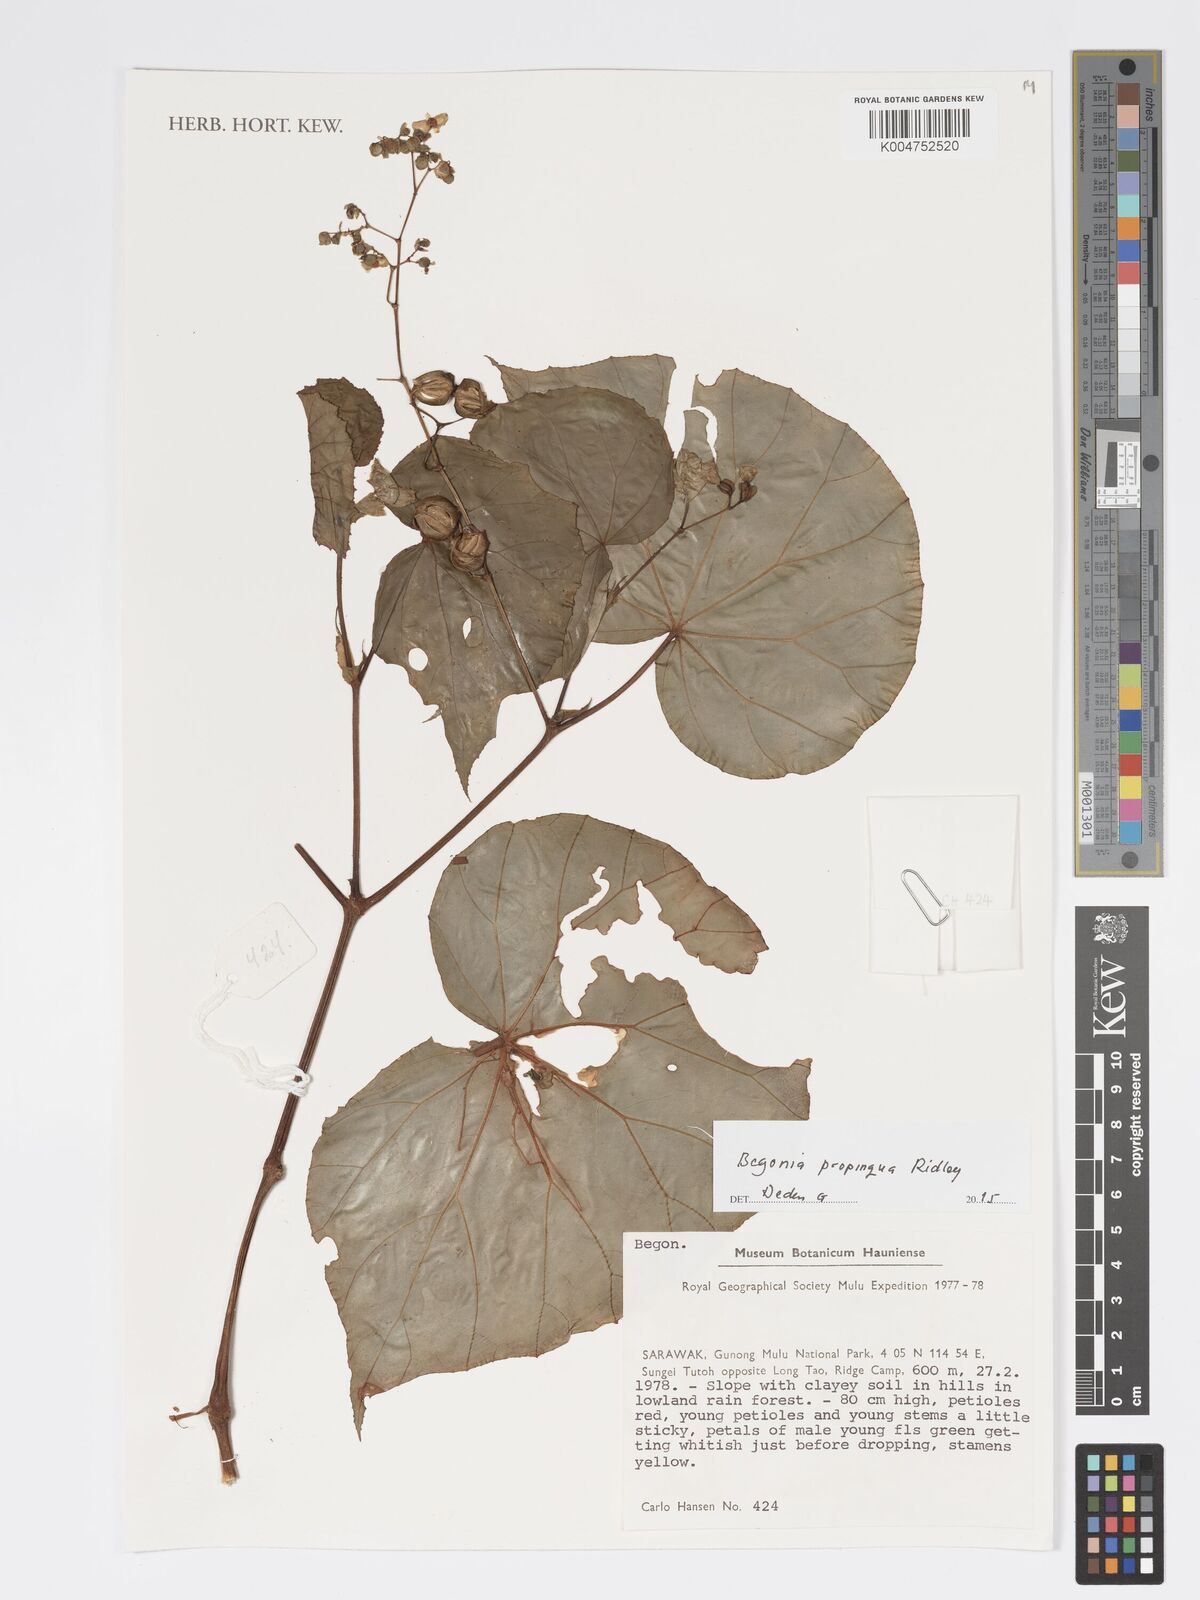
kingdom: Plantae
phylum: Tracheophyta
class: Magnoliopsida
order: Cucurbitales
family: Begoniaceae
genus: Begonia
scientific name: Begonia propinqua
